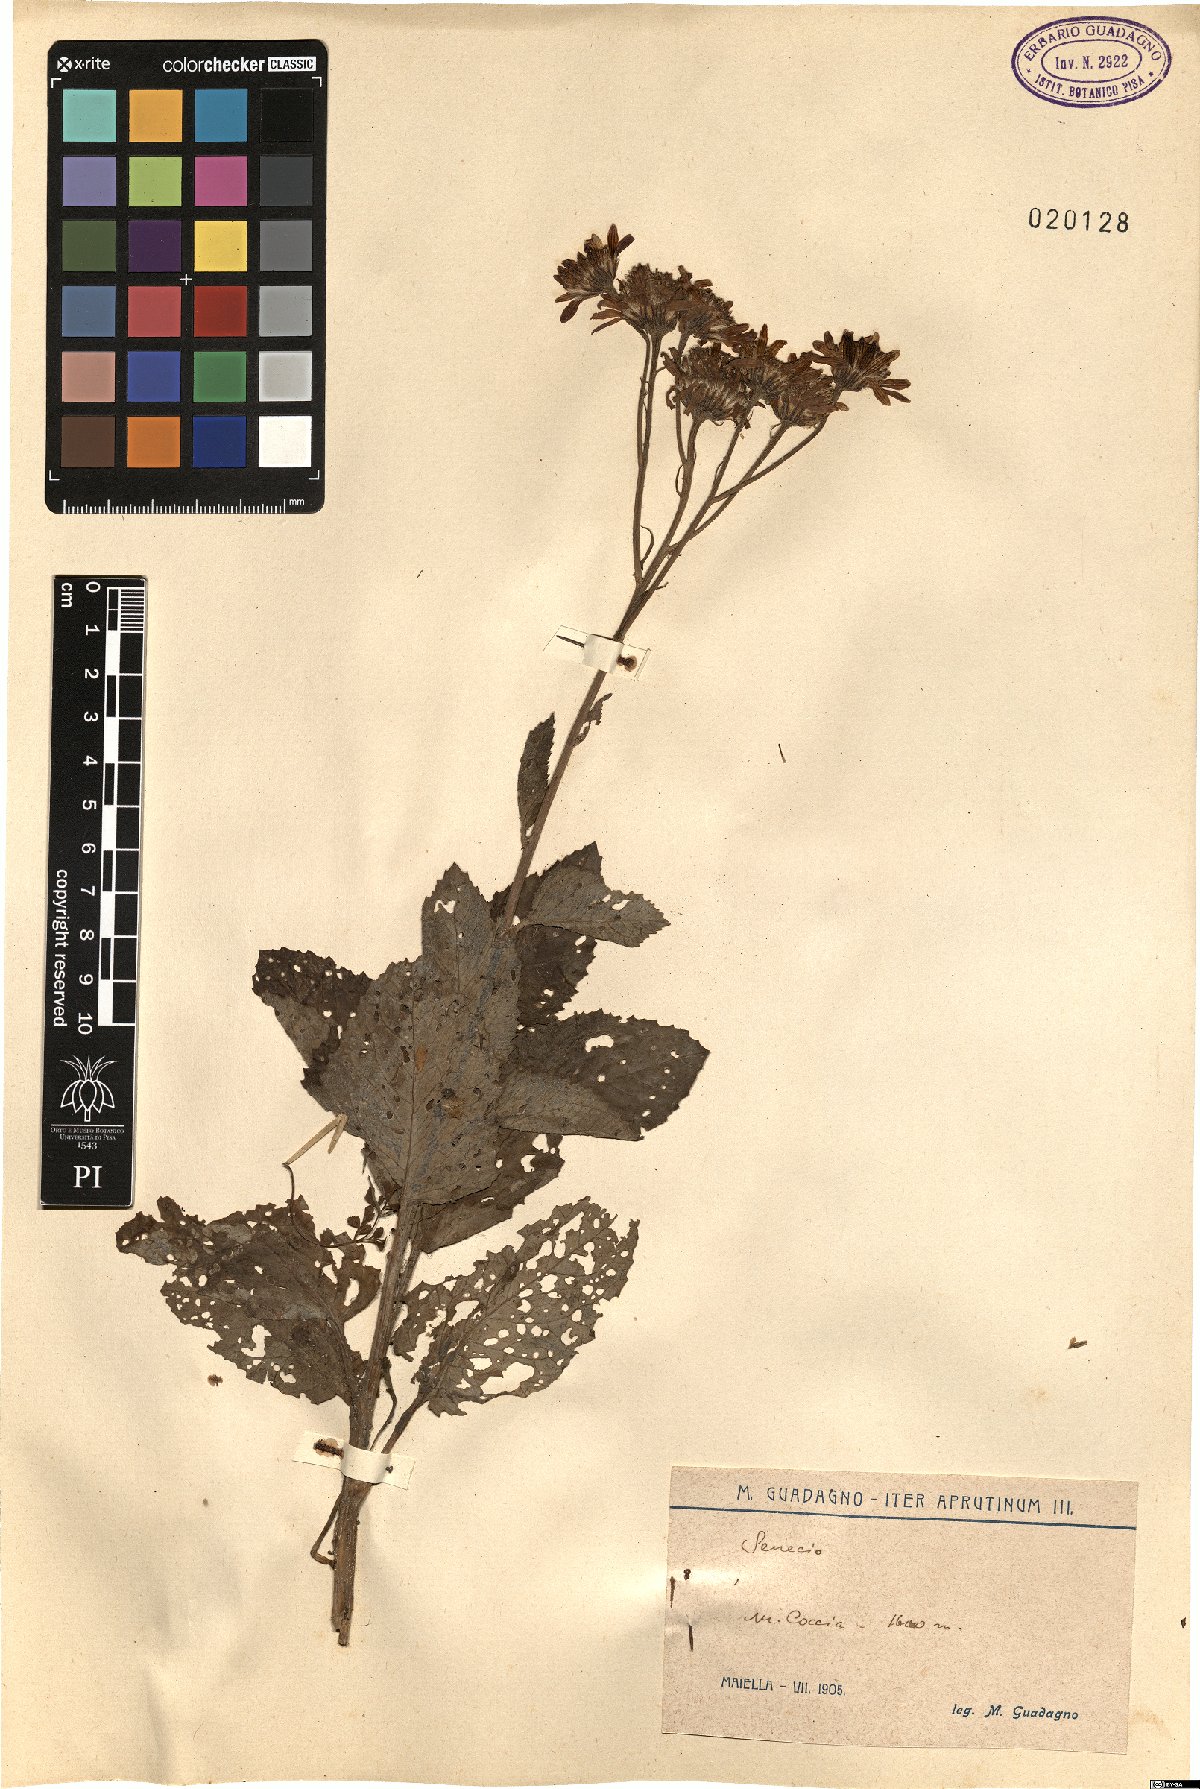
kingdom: Plantae
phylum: Tracheophyta
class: Magnoliopsida
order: Asterales
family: Asteraceae
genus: Senecio
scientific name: Senecio
